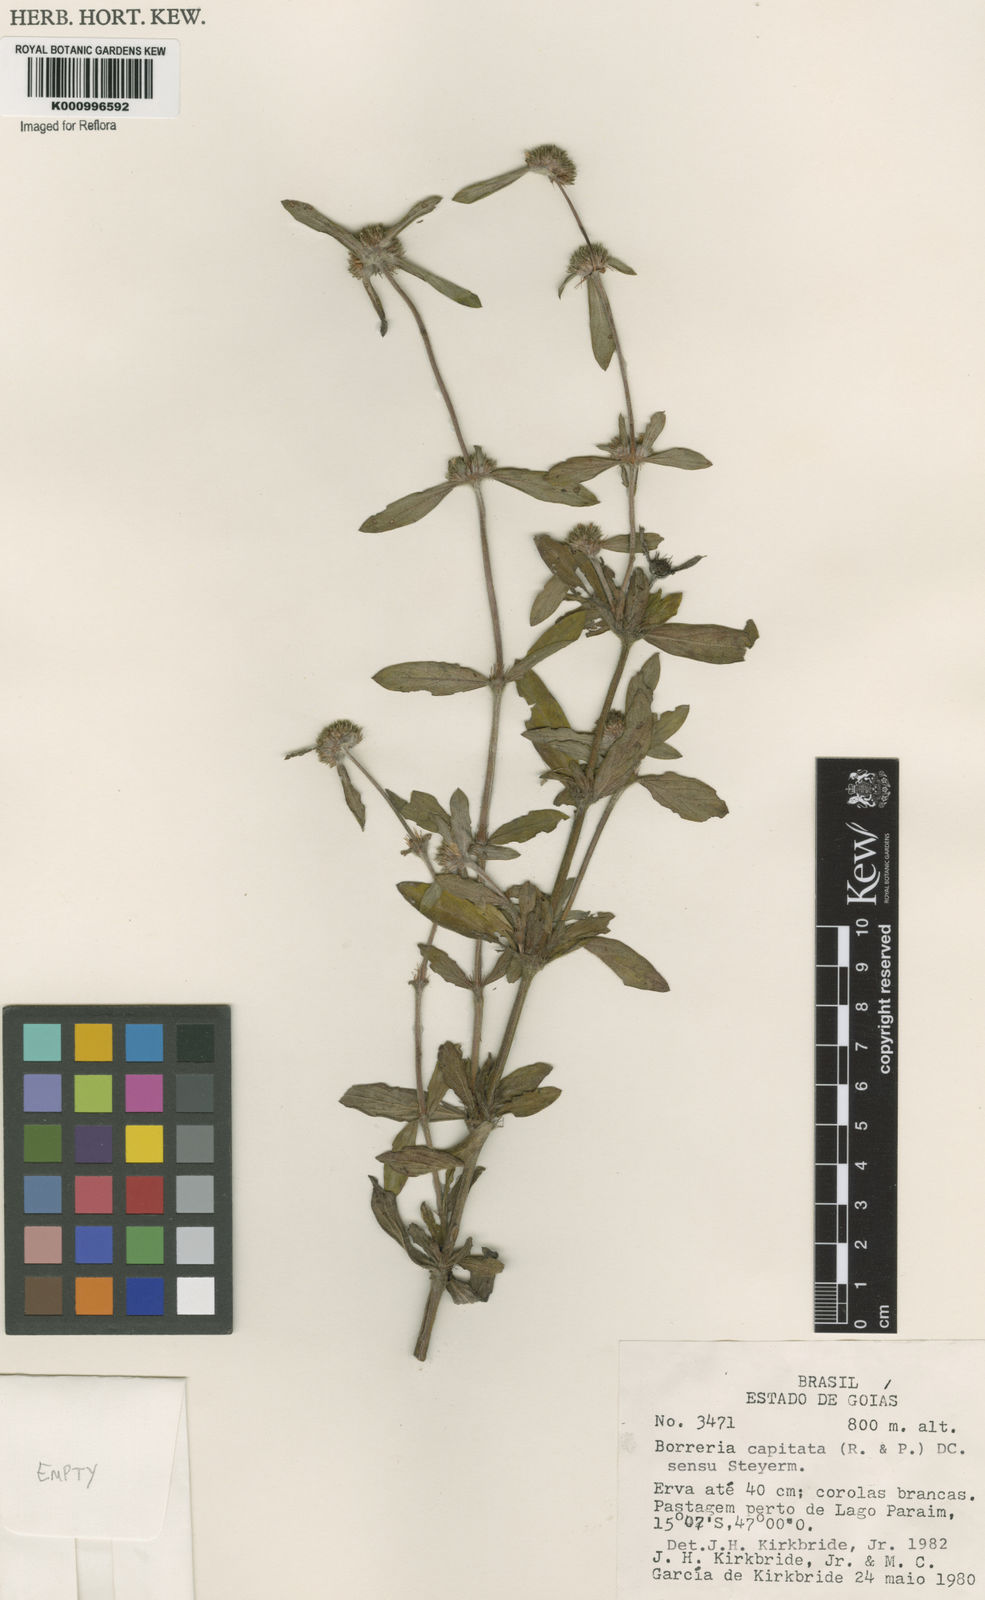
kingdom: Plantae
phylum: Tracheophyta
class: Magnoliopsida
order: Gentianales
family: Rubiaceae
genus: Spermacoce
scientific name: Spermacoce capitata
